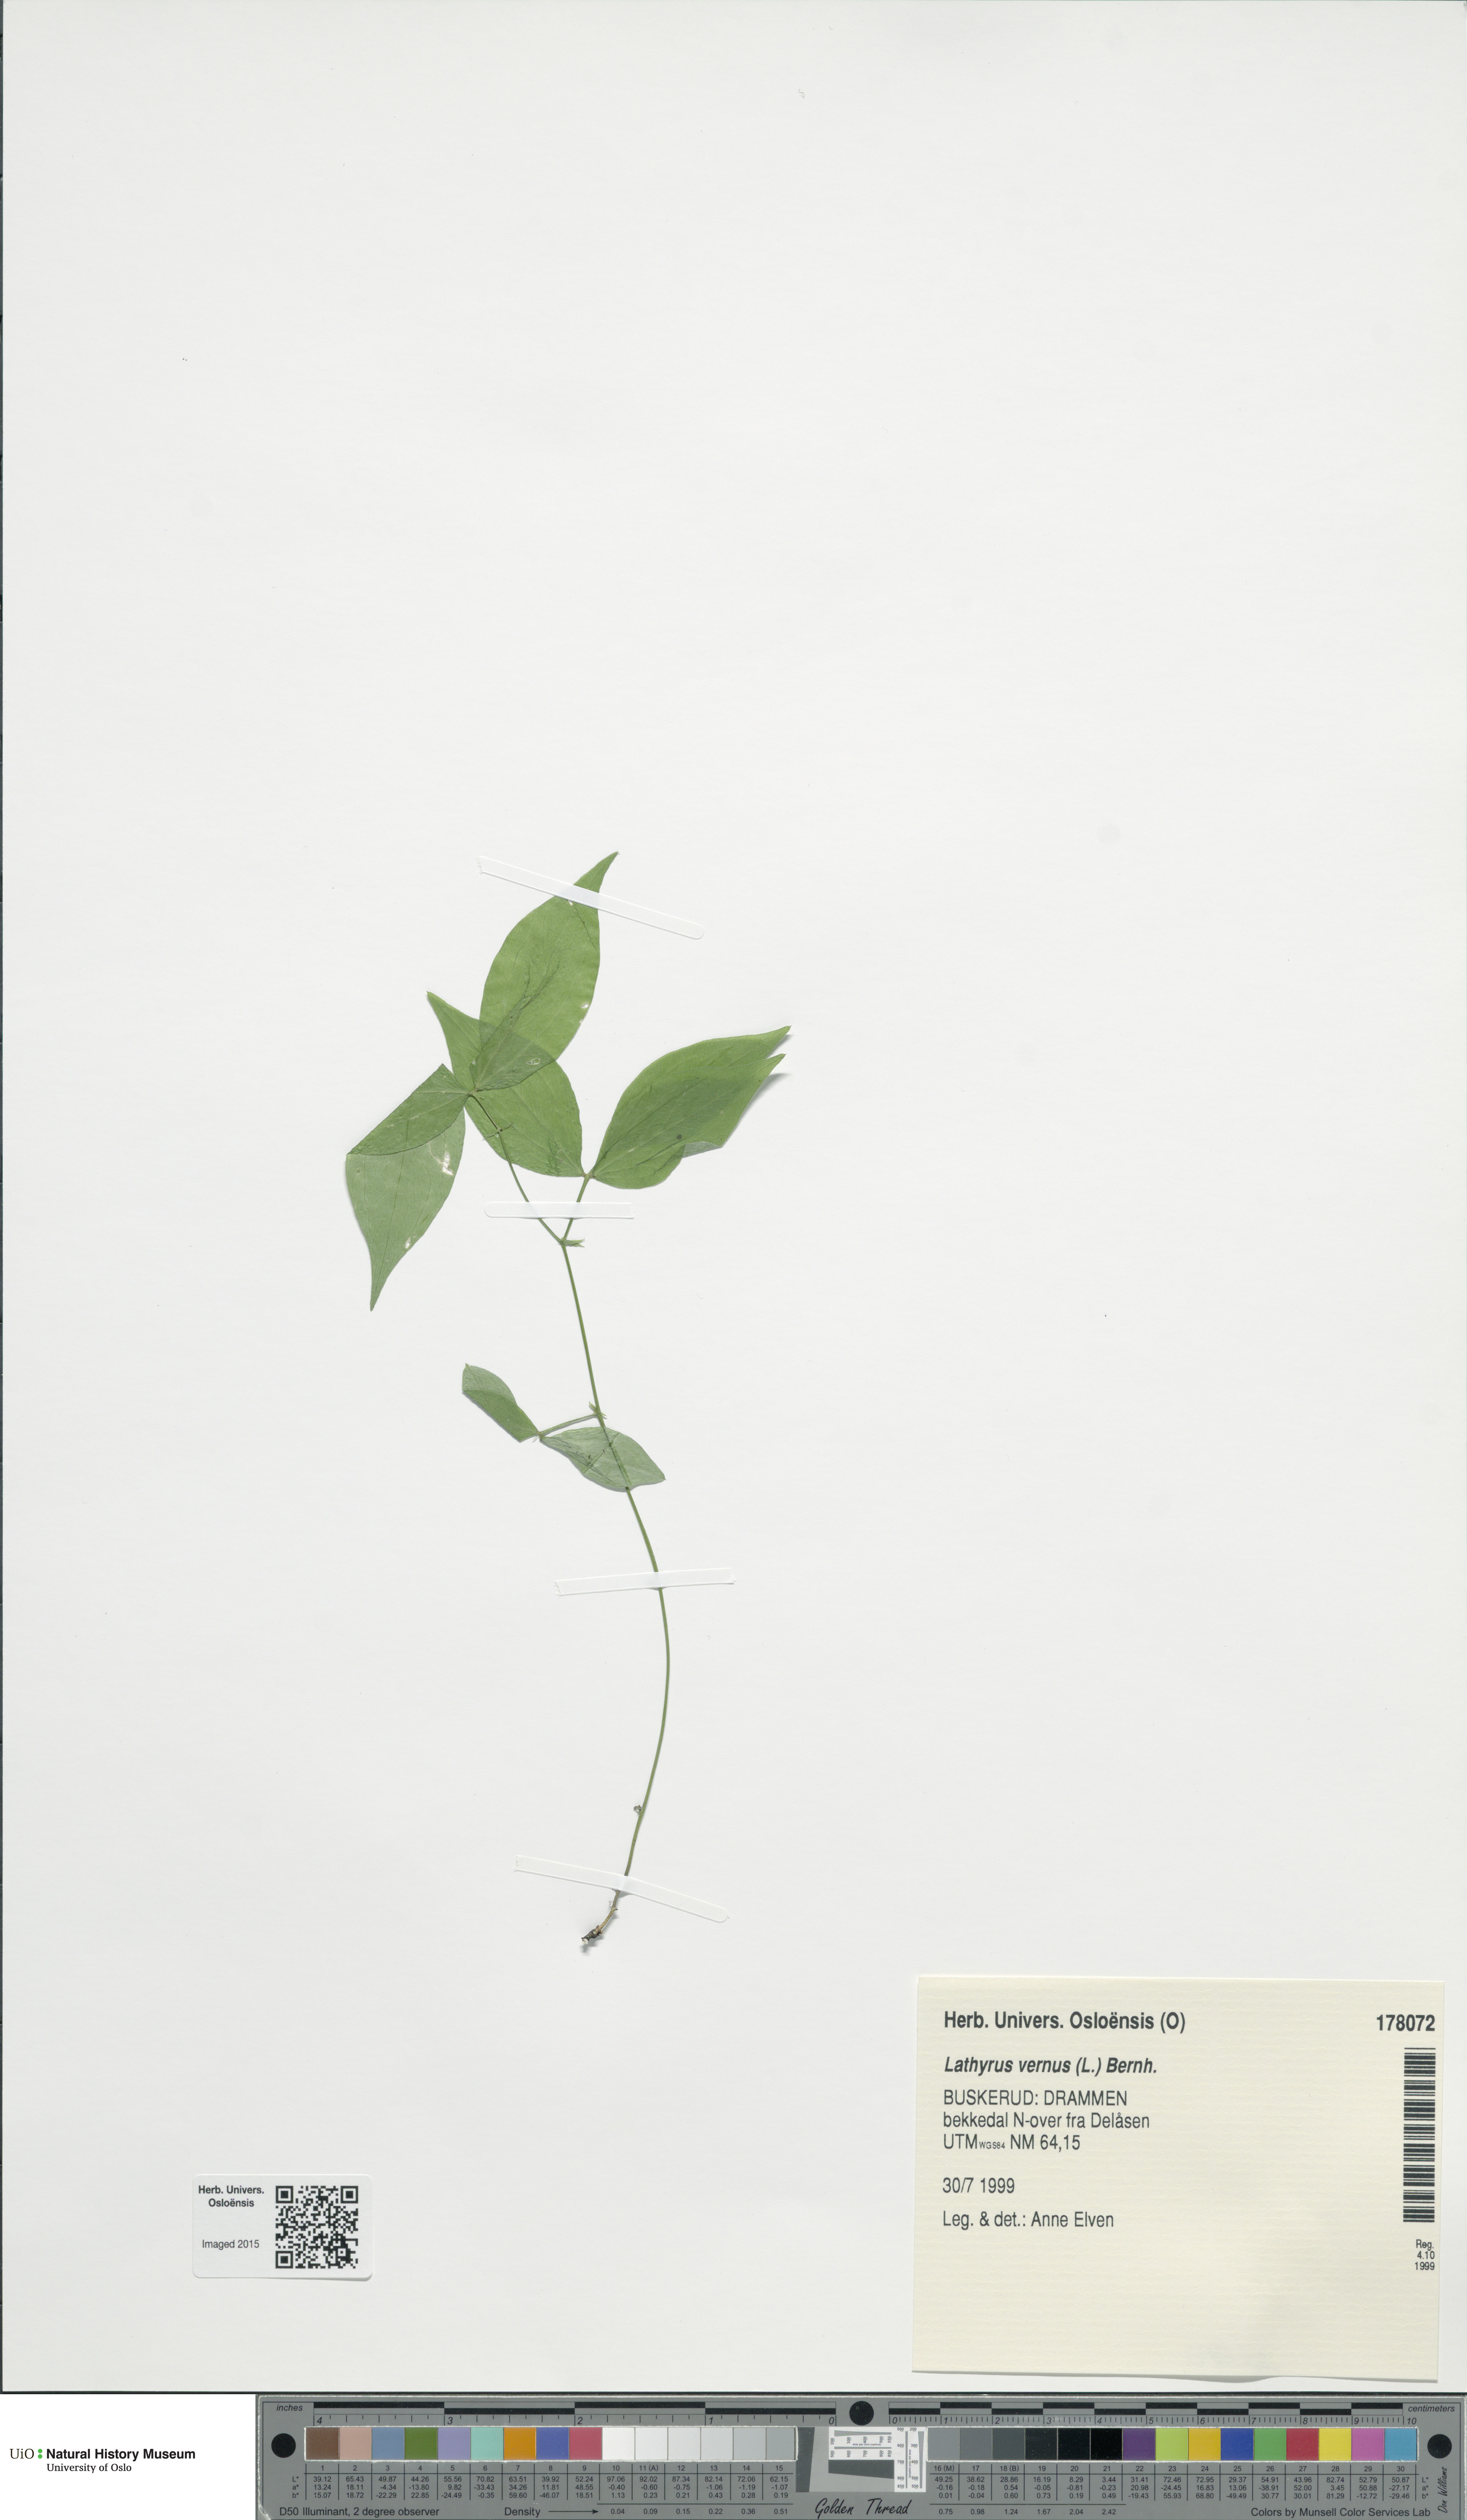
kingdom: Plantae
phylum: Tracheophyta
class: Magnoliopsida
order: Fabales
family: Fabaceae
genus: Lathyrus
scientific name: Lathyrus vernus
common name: Spring pea
